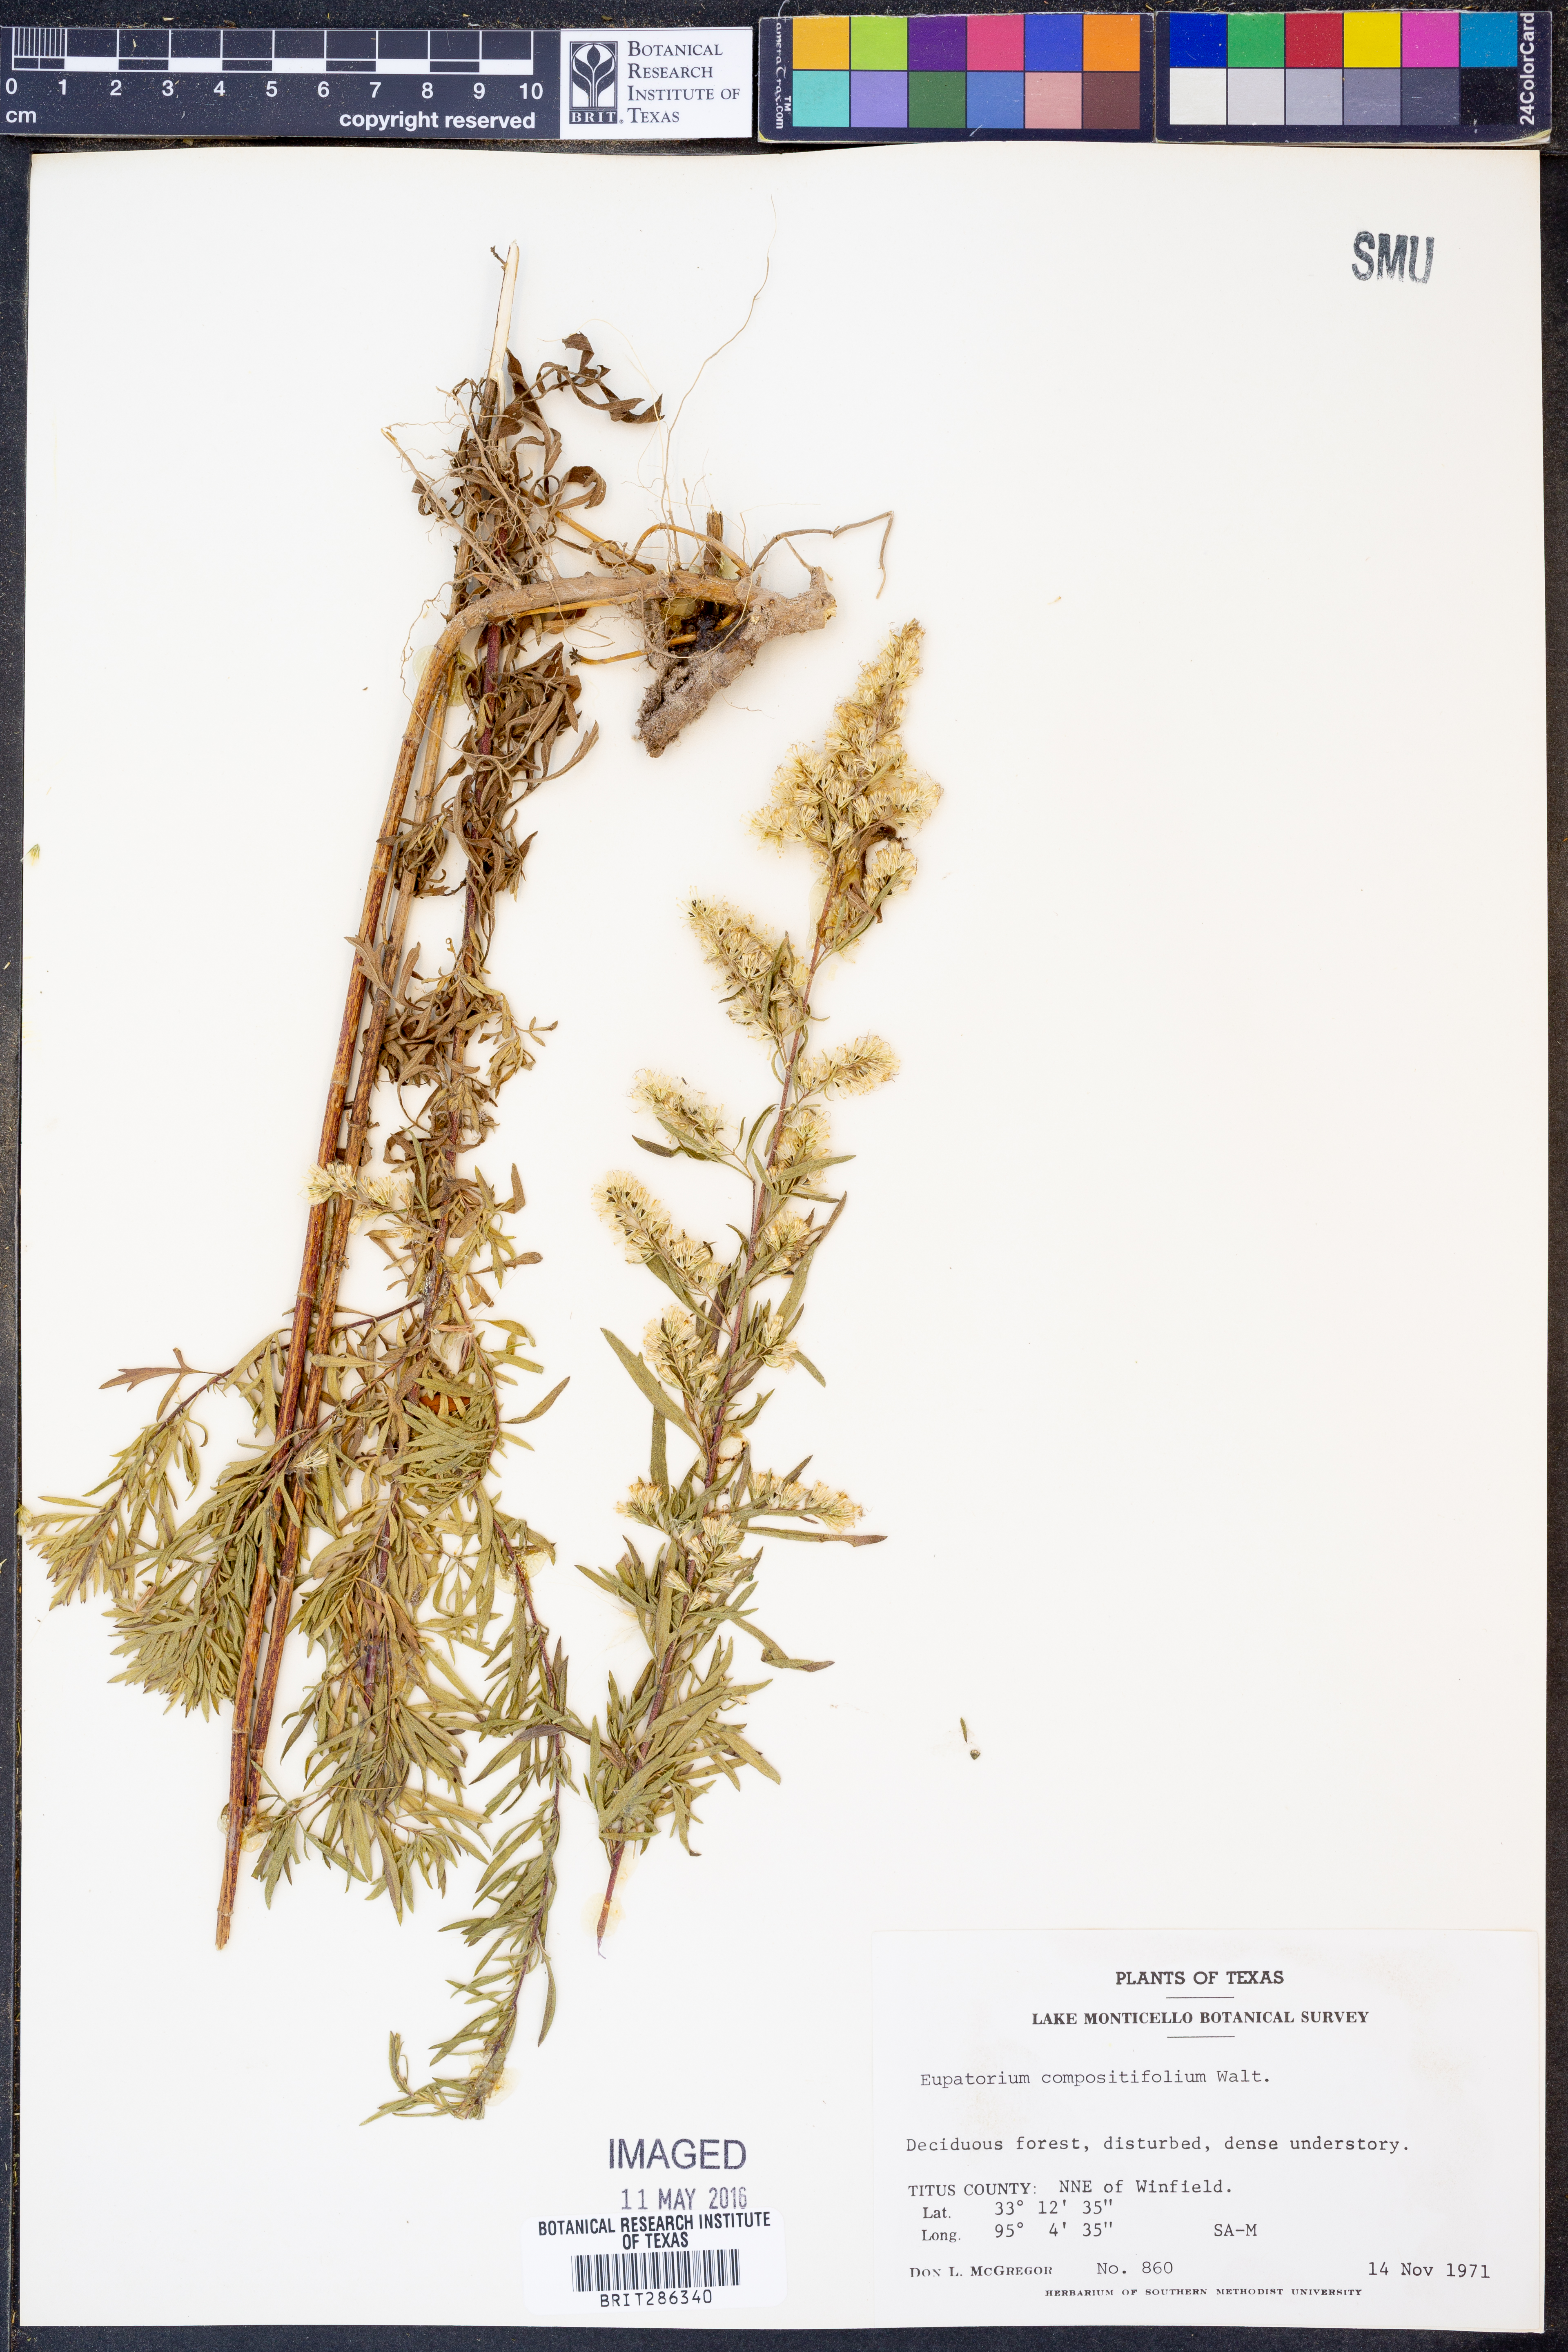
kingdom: Plantae
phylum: Tracheophyta
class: Magnoliopsida
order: Asterales
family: Asteraceae
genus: Eupatorium
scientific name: Eupatorium compositifolium
